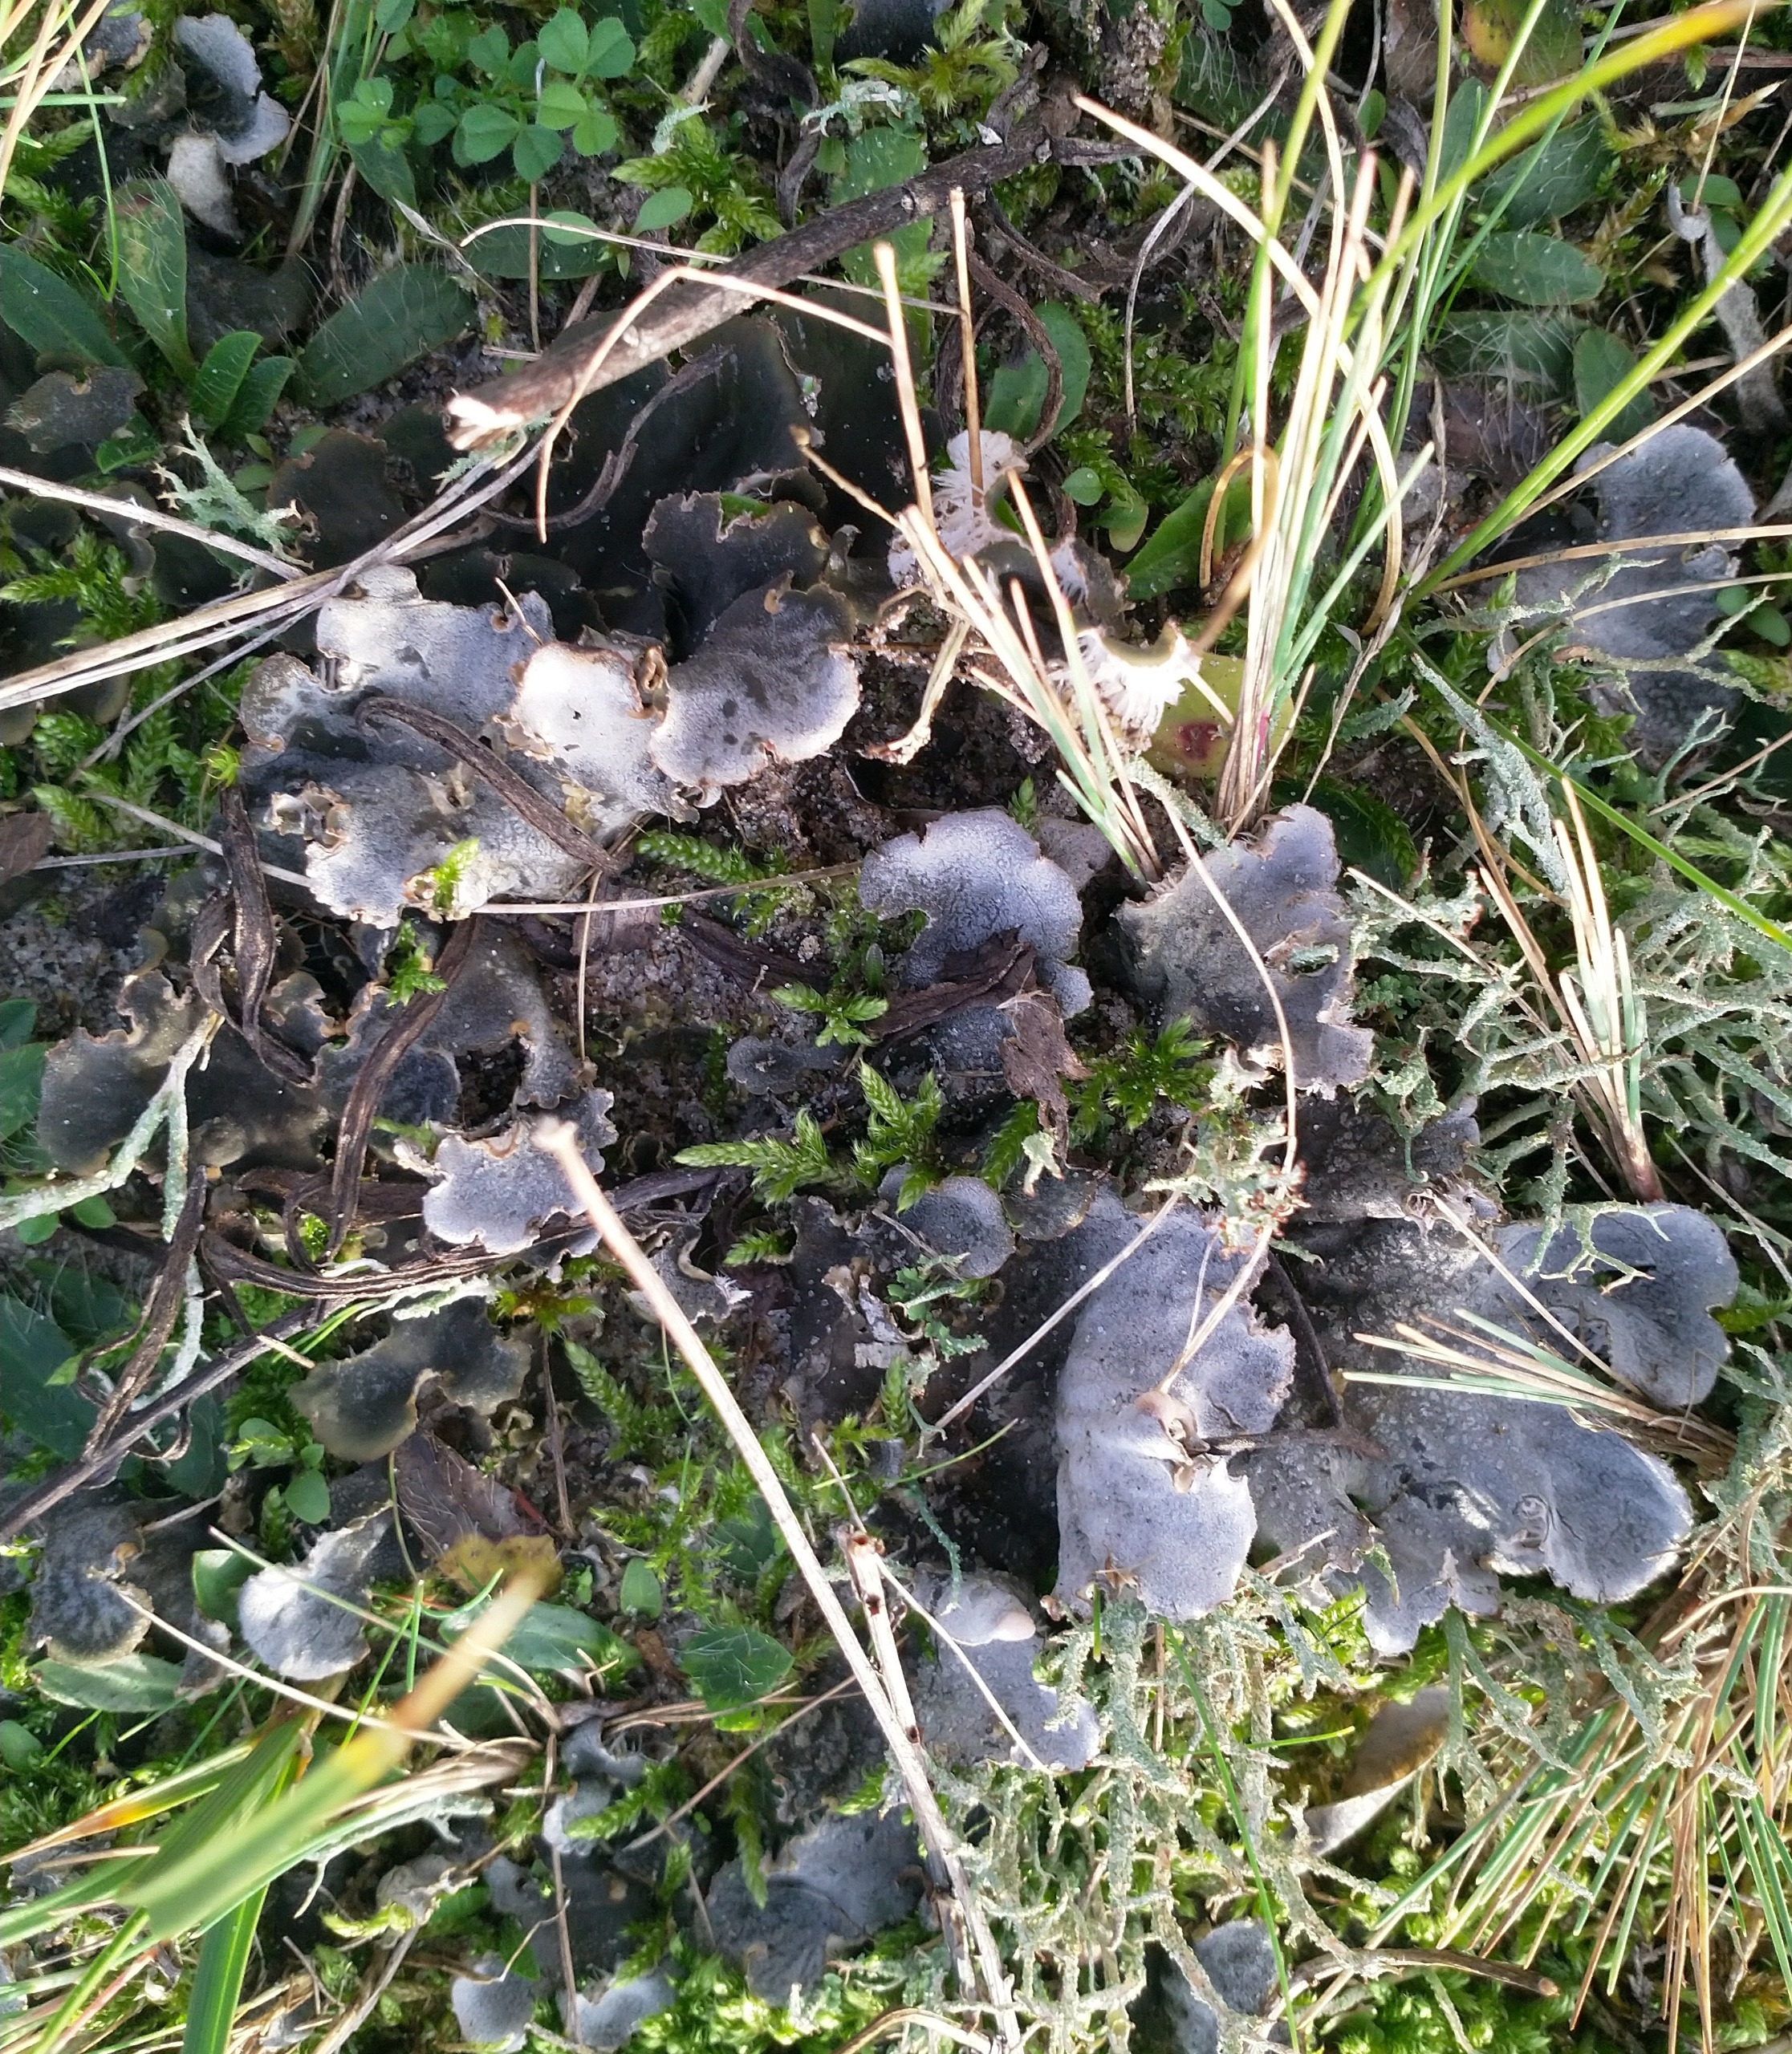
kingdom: Fungi
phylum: Ascomycota
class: Lecanoromycetes
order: Peltigerales
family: Peltigeraceae
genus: Peltigera
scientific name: Peltigera
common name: Skjoldlav
